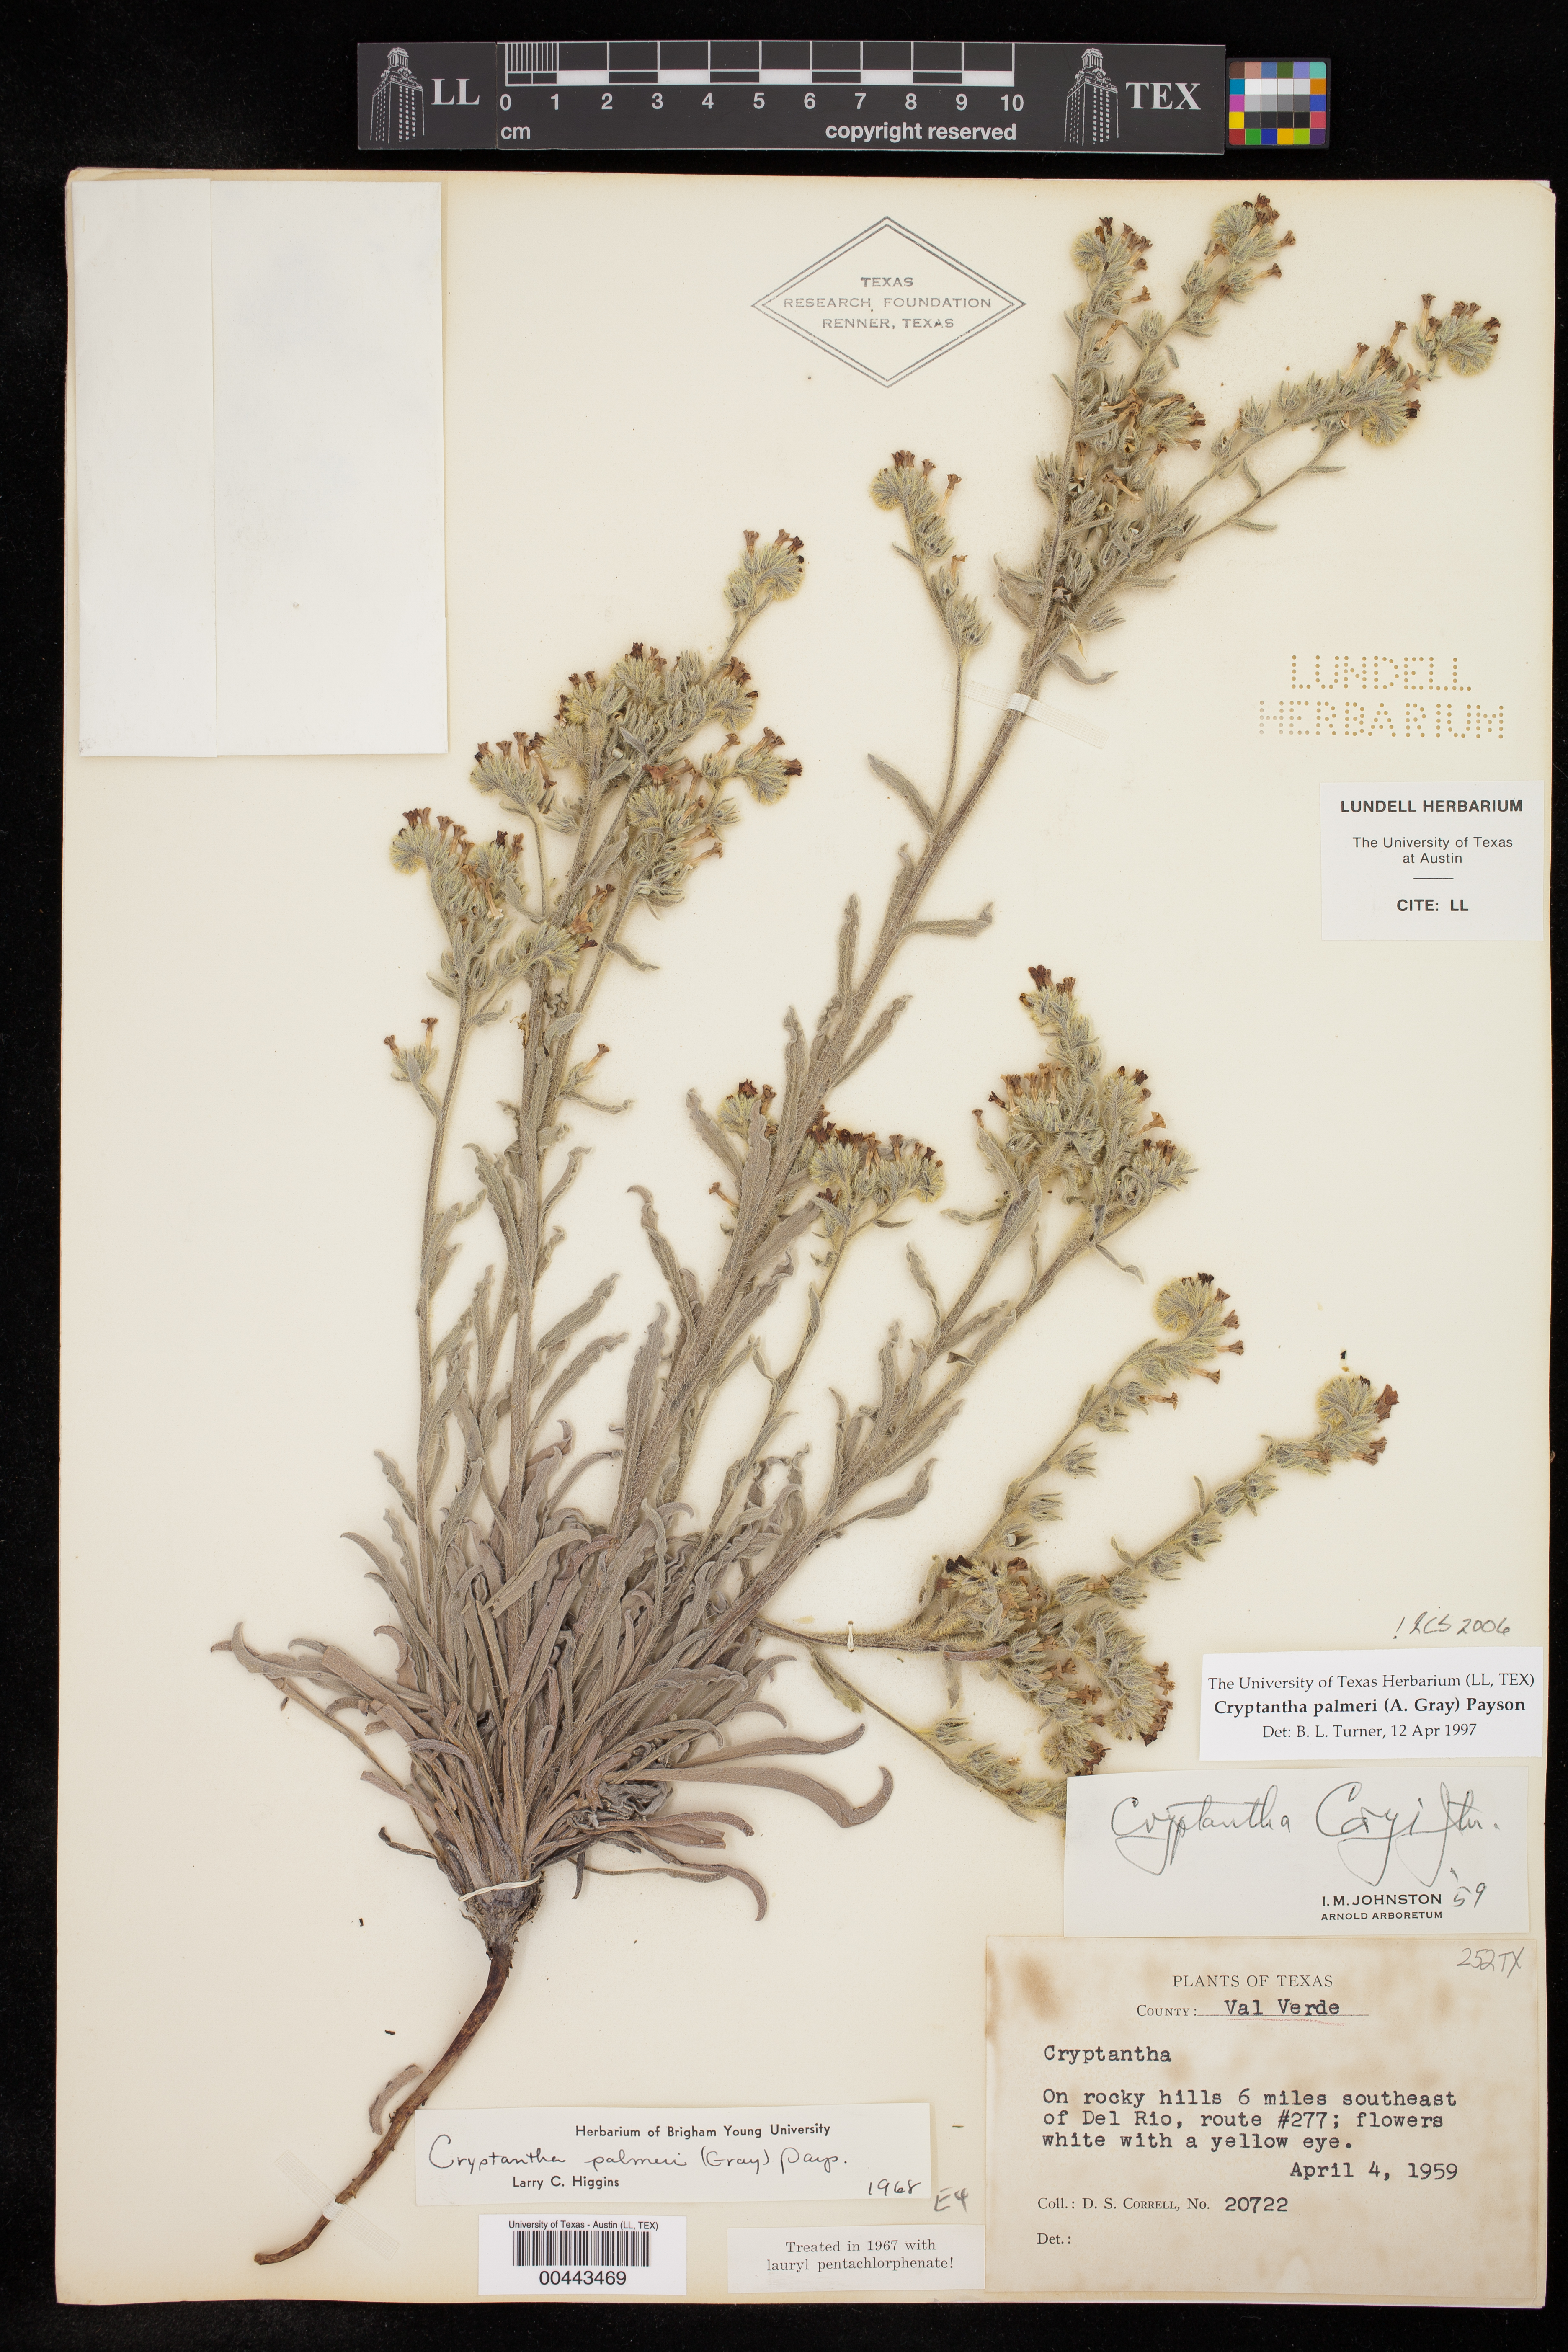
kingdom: Plantae
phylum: Tracheophyta
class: Magnoliopsida
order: Boraginales
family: Boraginaceae
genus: Oreocarya
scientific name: Oreocarya palmeri
